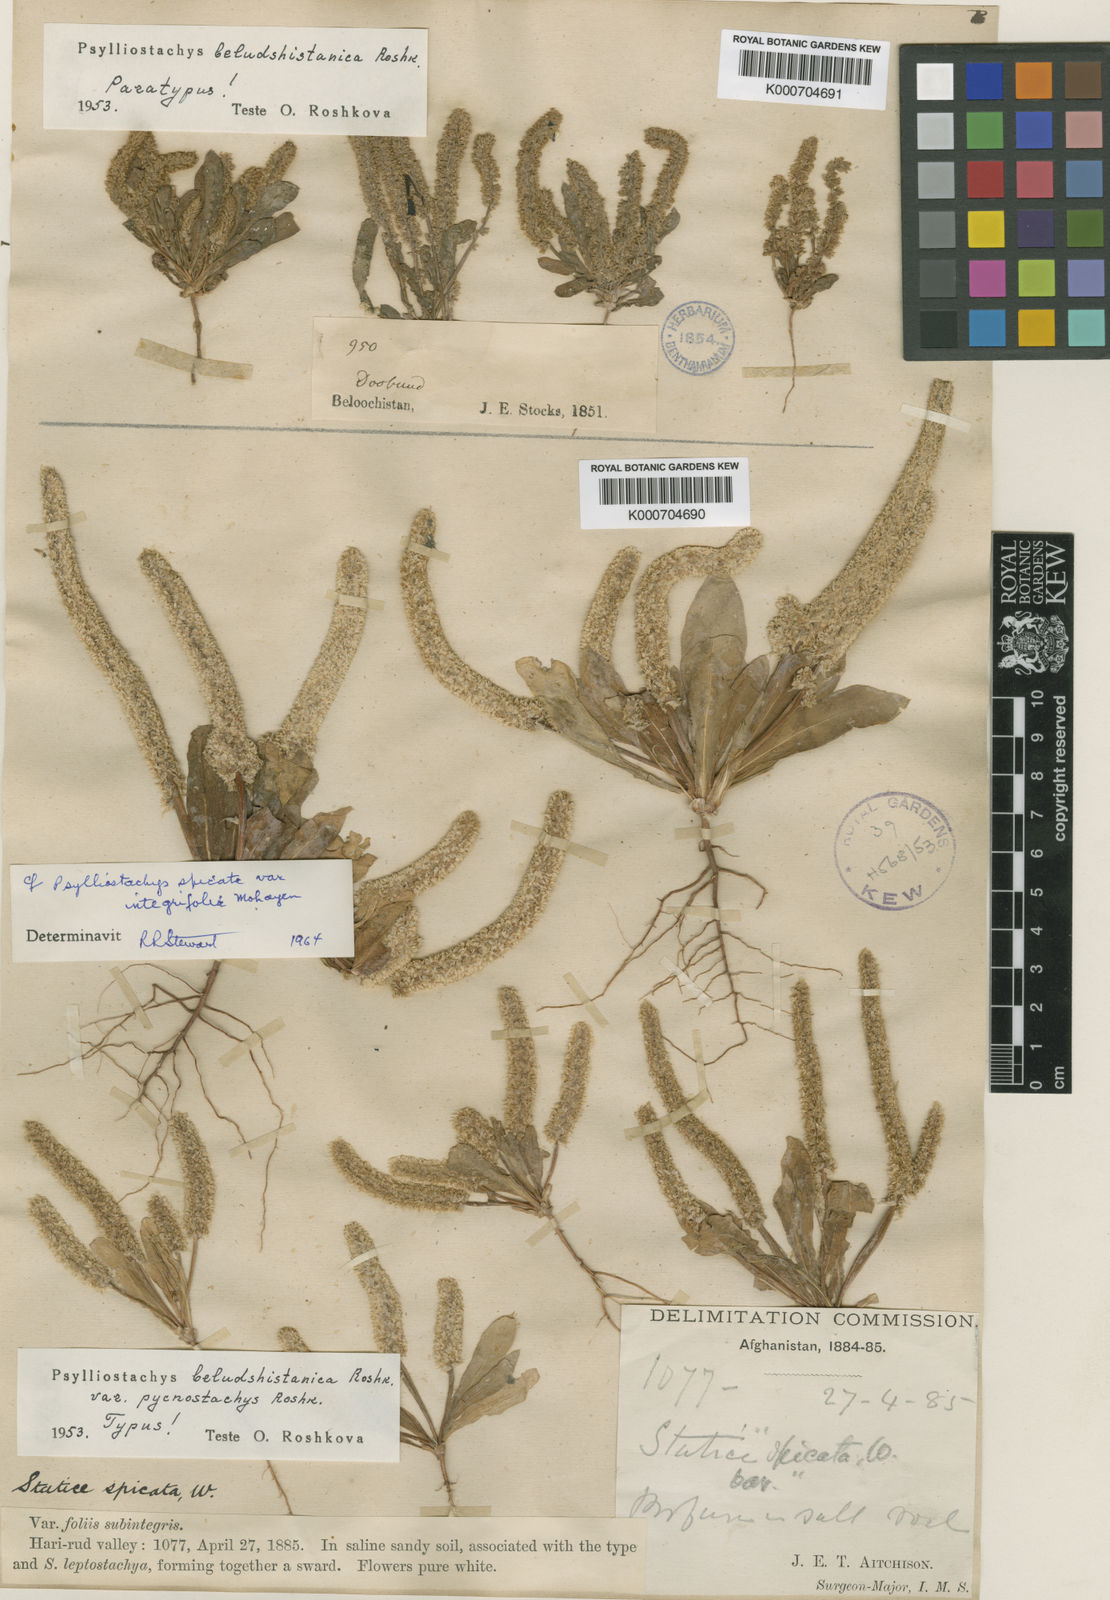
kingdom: Plantae
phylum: Tracheophyta
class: Magnoliopsida
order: Caryophyllales
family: Plumbaginaceae
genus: Psylliostachys
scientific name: Psylliostachys
